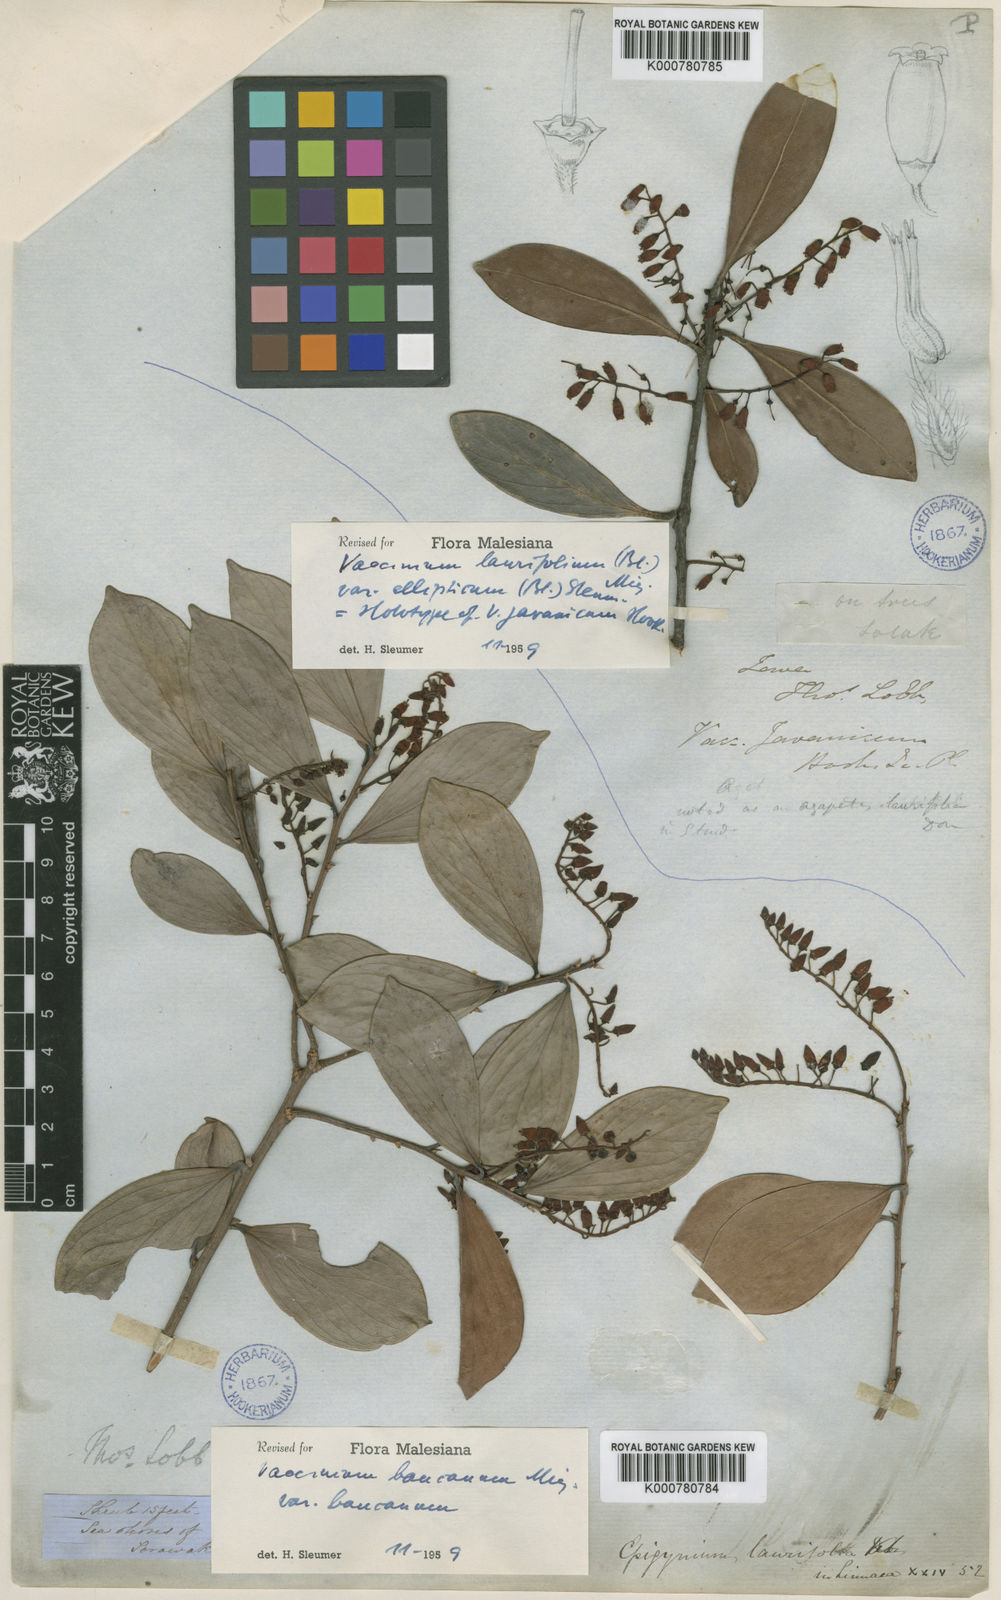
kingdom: Plantae
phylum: Tracheophyta
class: Magnoliopsida
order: Ericales
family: Ericaceae
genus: Vaccinium
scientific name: Vaccinium laurifolium
